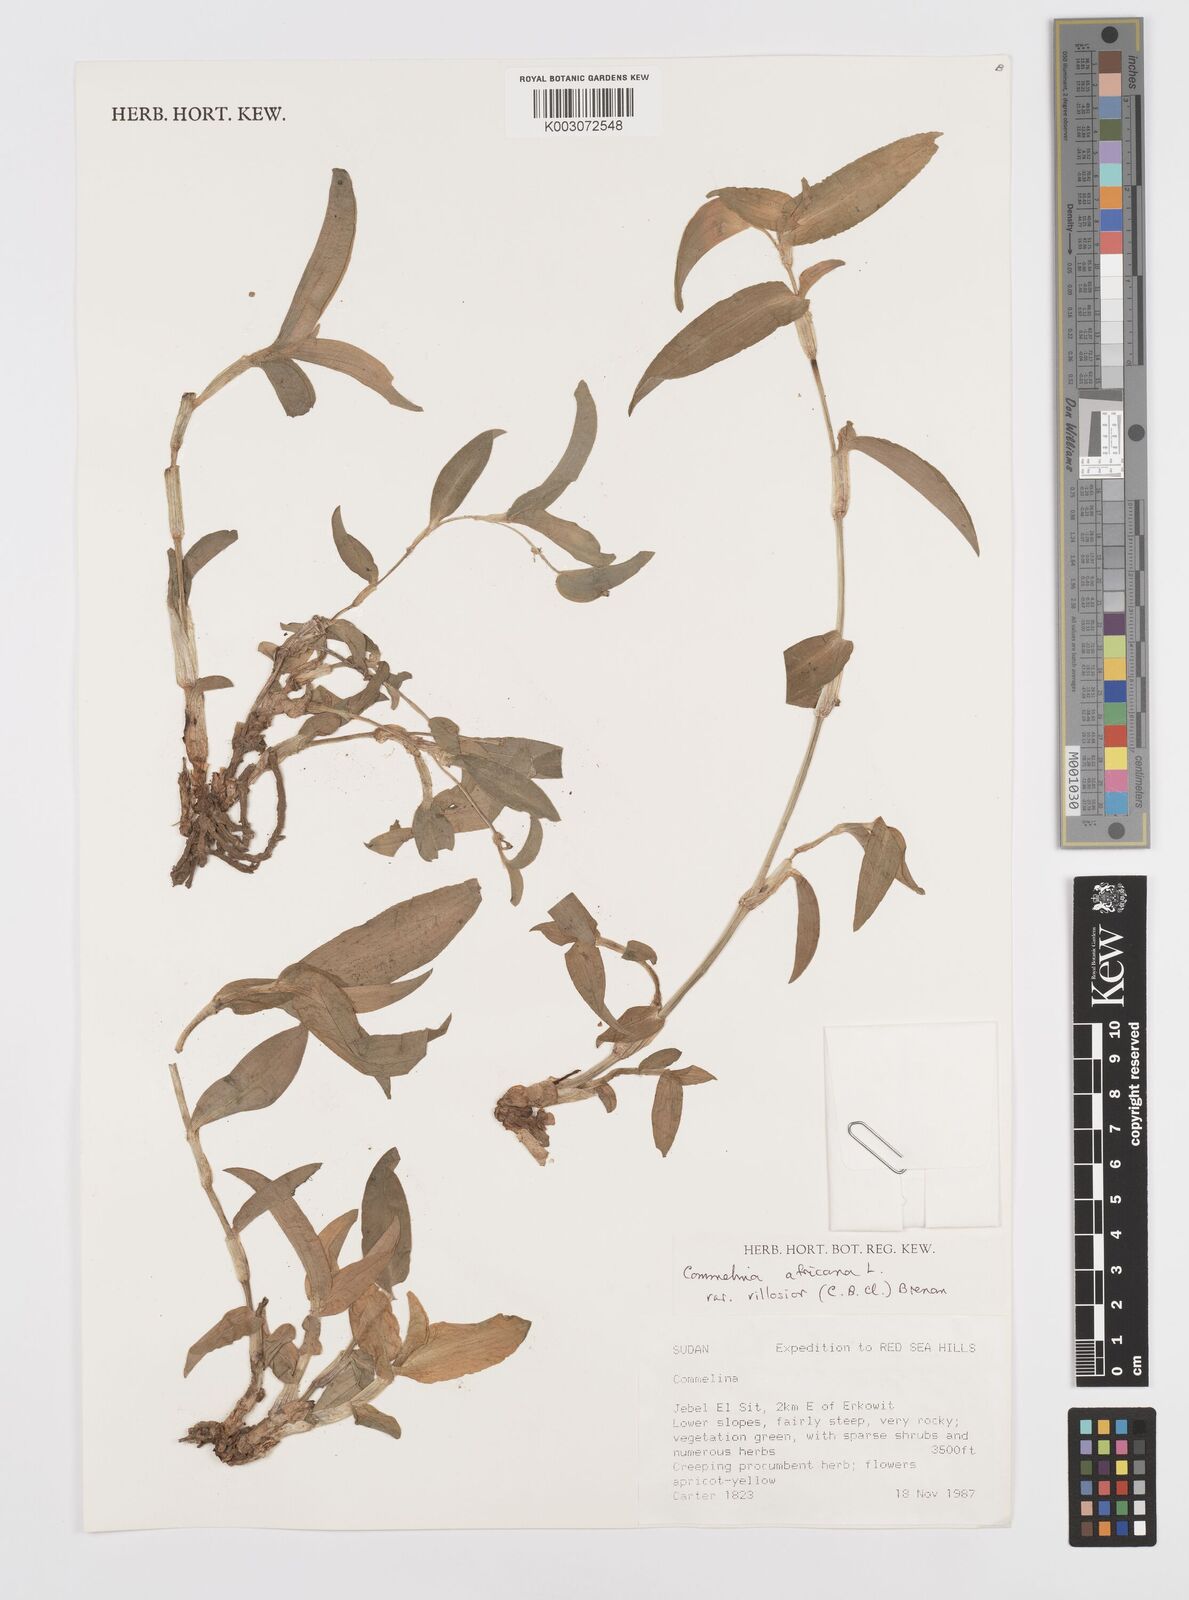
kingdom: Plantae
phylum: Tracheophyta
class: Liliopsida
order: Commelinales
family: Commelinaceae
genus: Commelina
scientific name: Commelina africana
